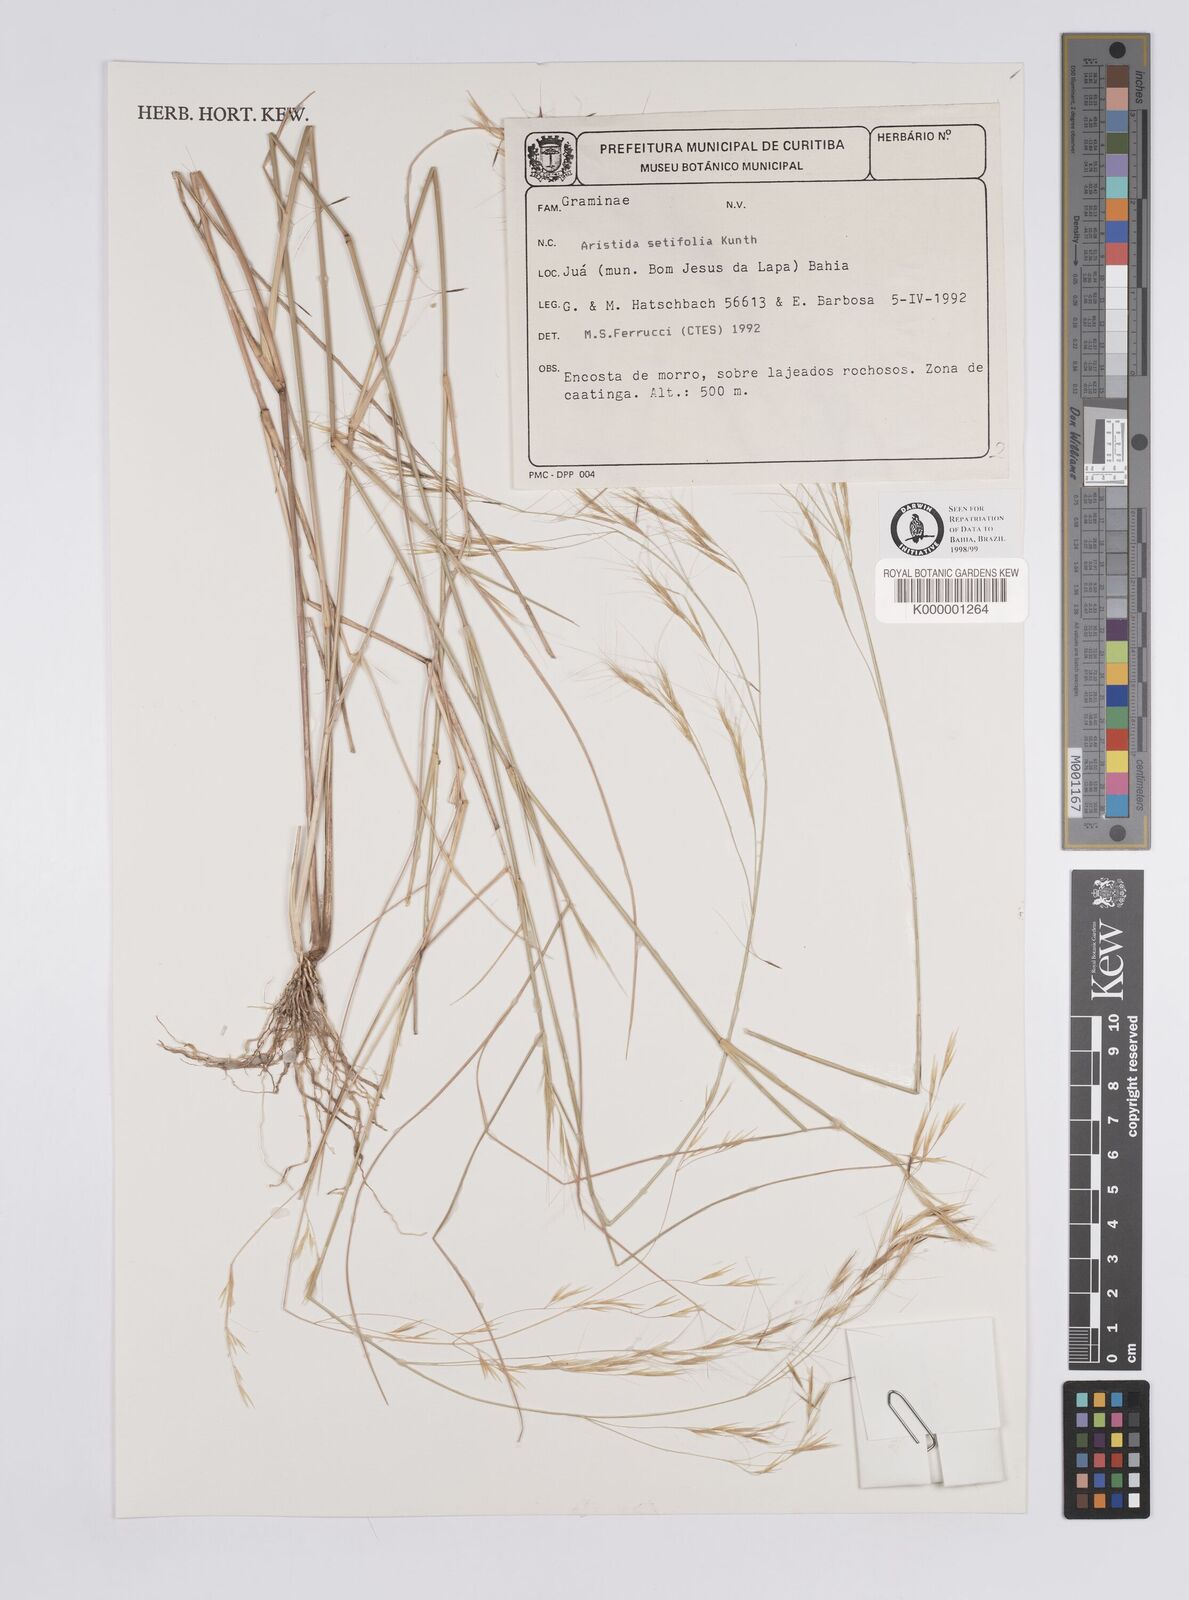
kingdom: Plantae
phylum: Tracheophyta
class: Liliopsida
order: Poales
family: Poaceae
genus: Aristida
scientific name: Aristida setifolia
